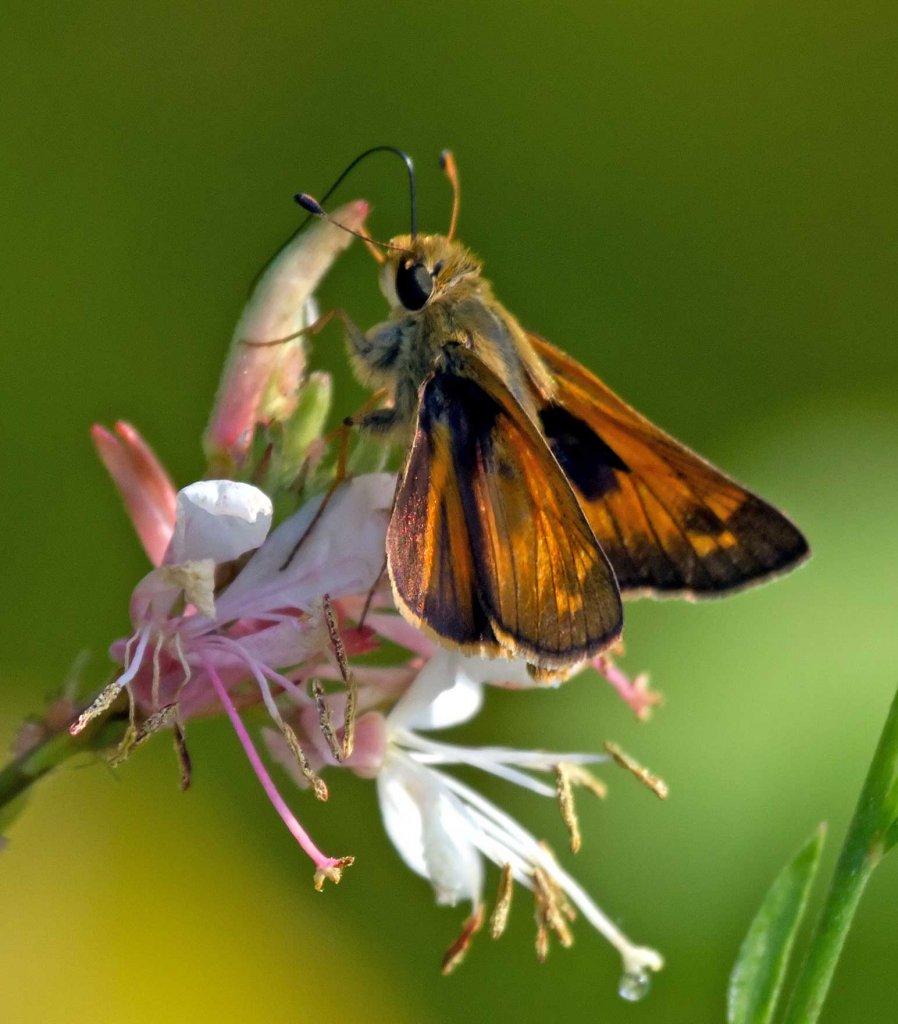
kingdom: Animalia
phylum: Arthropoda
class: Insecta
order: Lepidoptera
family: Hesperiidae
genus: Hylephila
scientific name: Hylephila phyleus
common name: Fiery Skipper
